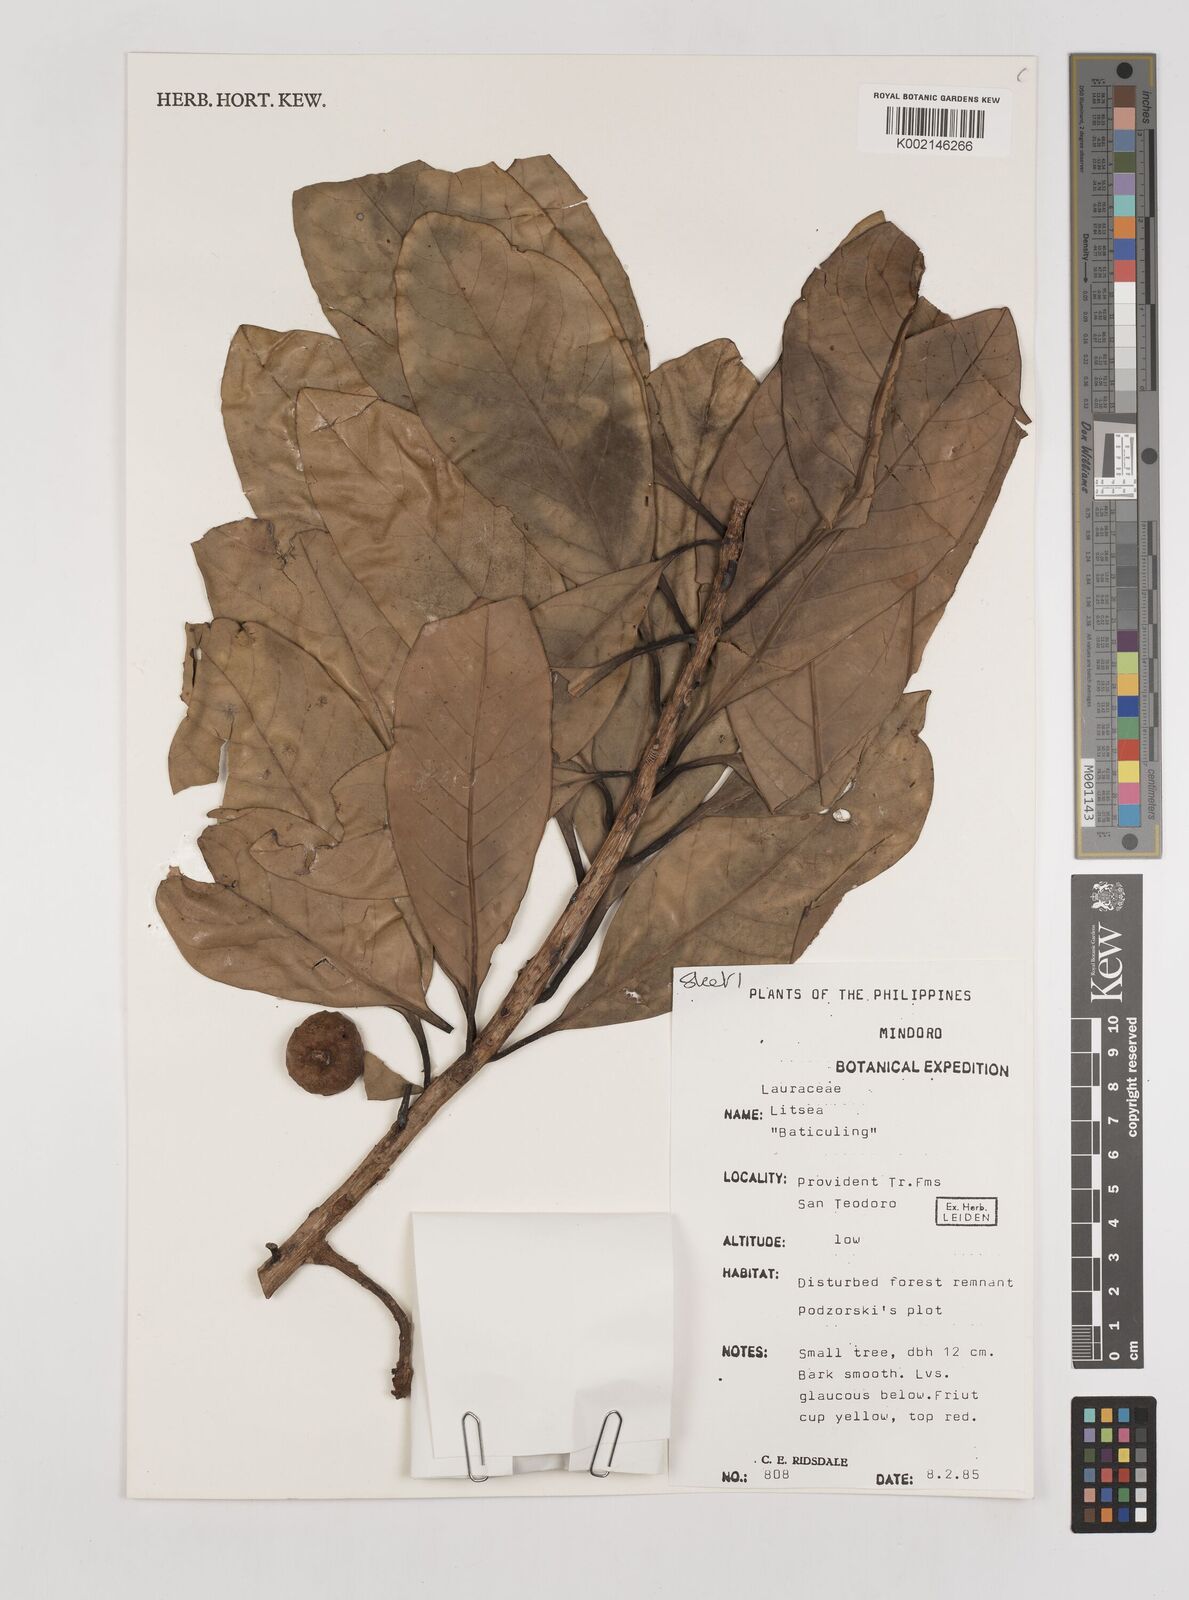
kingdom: Plantae
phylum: Tracheophyta
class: Magnoliopsida
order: Laurales
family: Lauraceae
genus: Litsea
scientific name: Litsea
